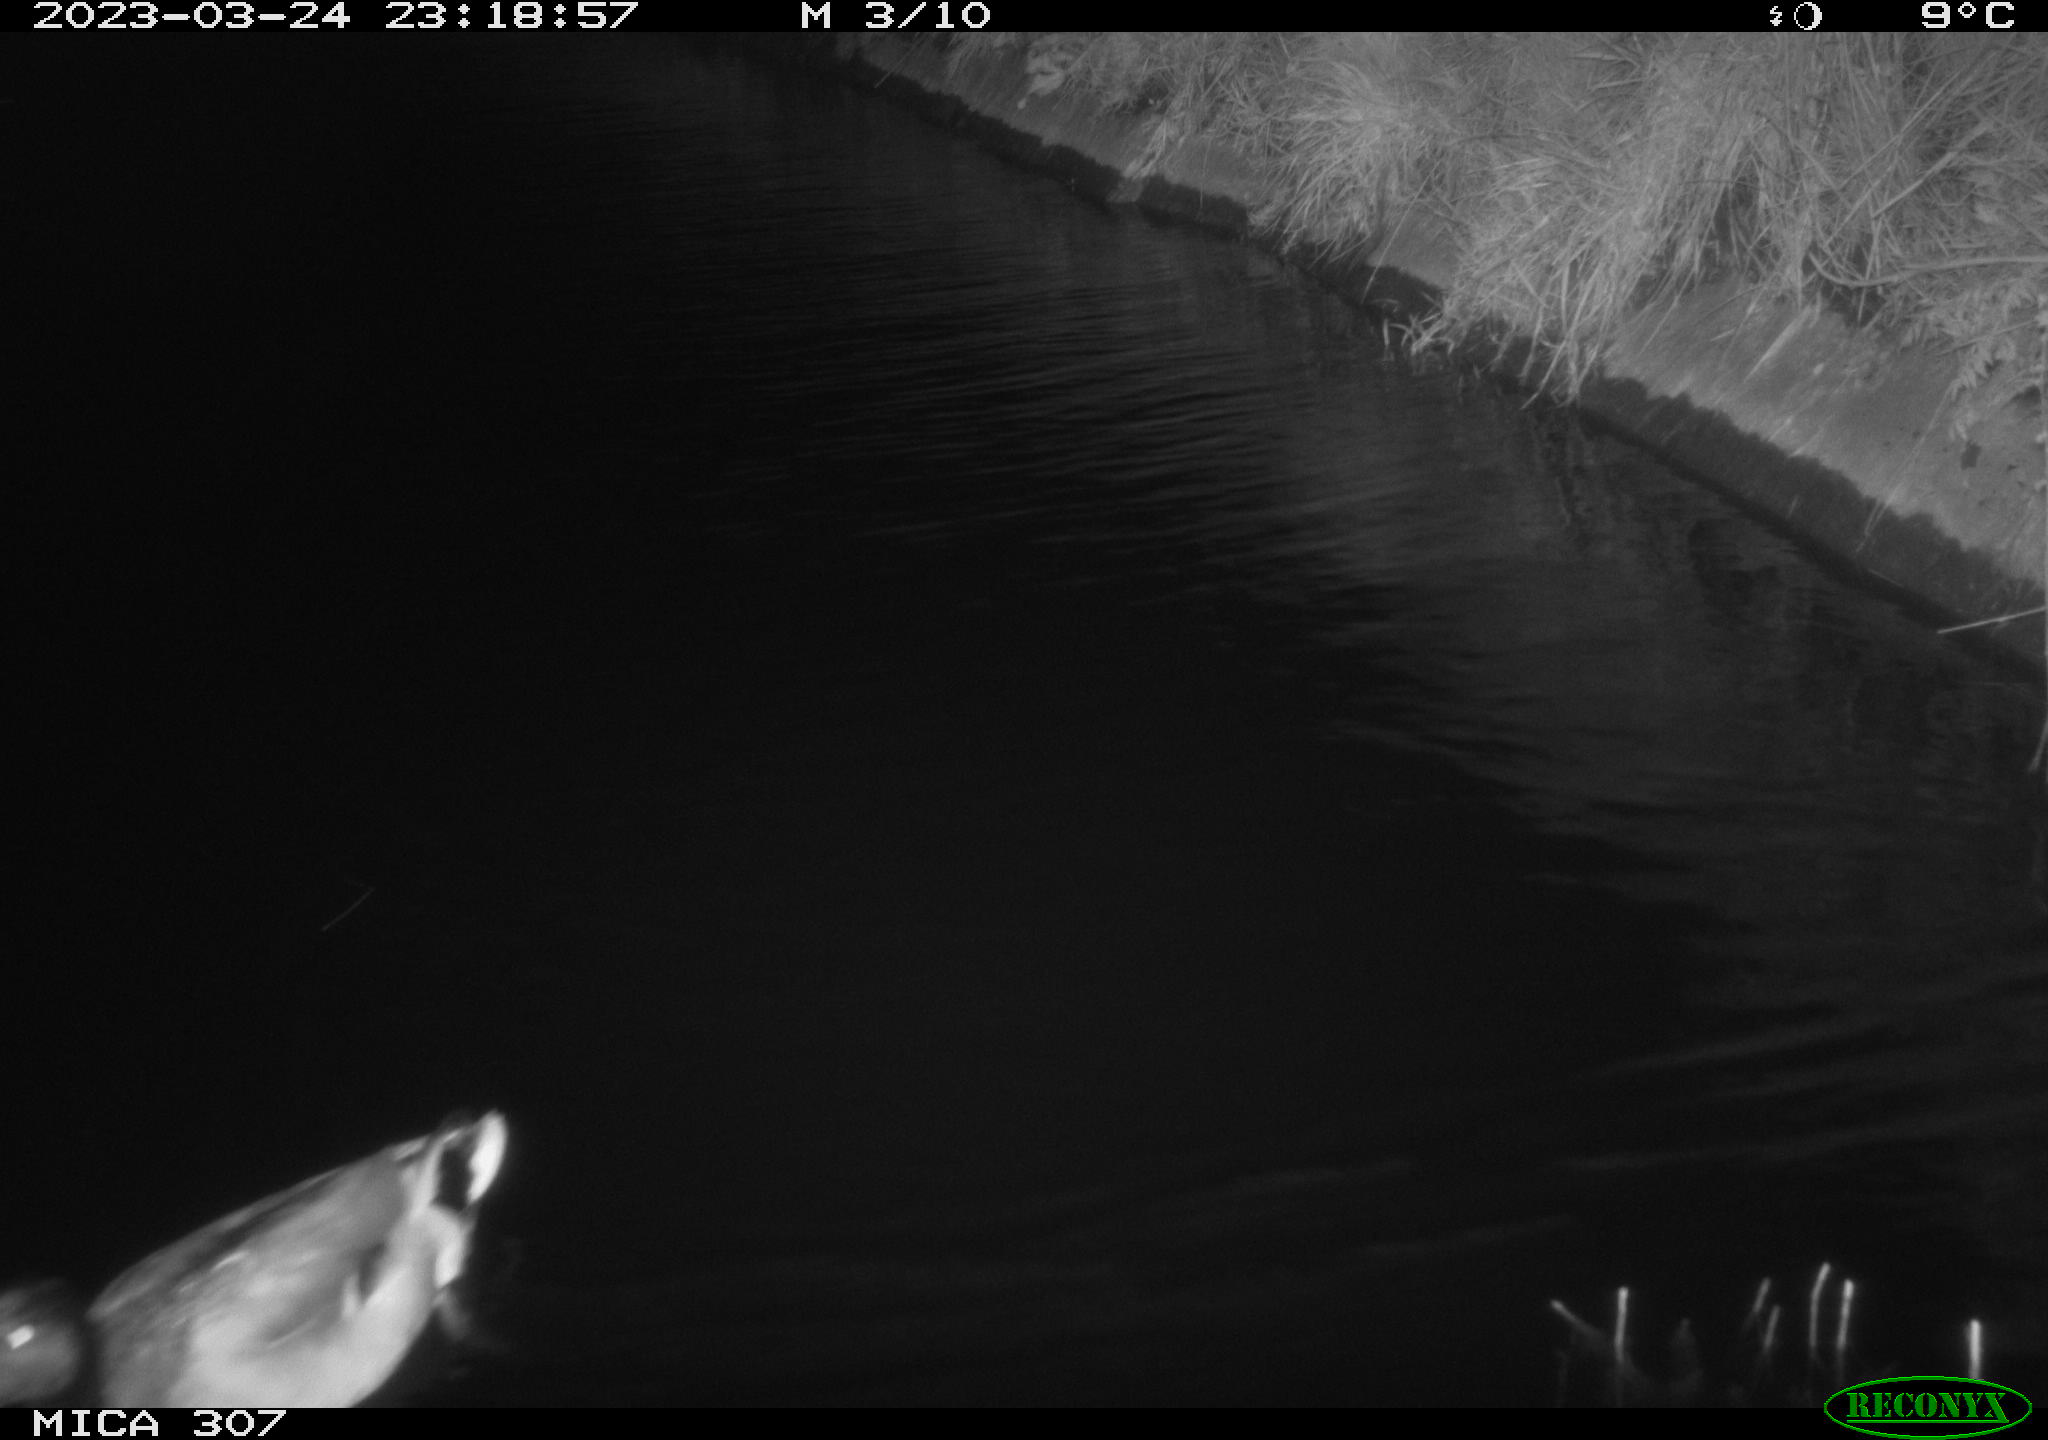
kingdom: Animalia
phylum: Chordata
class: Aves
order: Anseriformes
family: Anatidae
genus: Anas
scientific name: Anas
